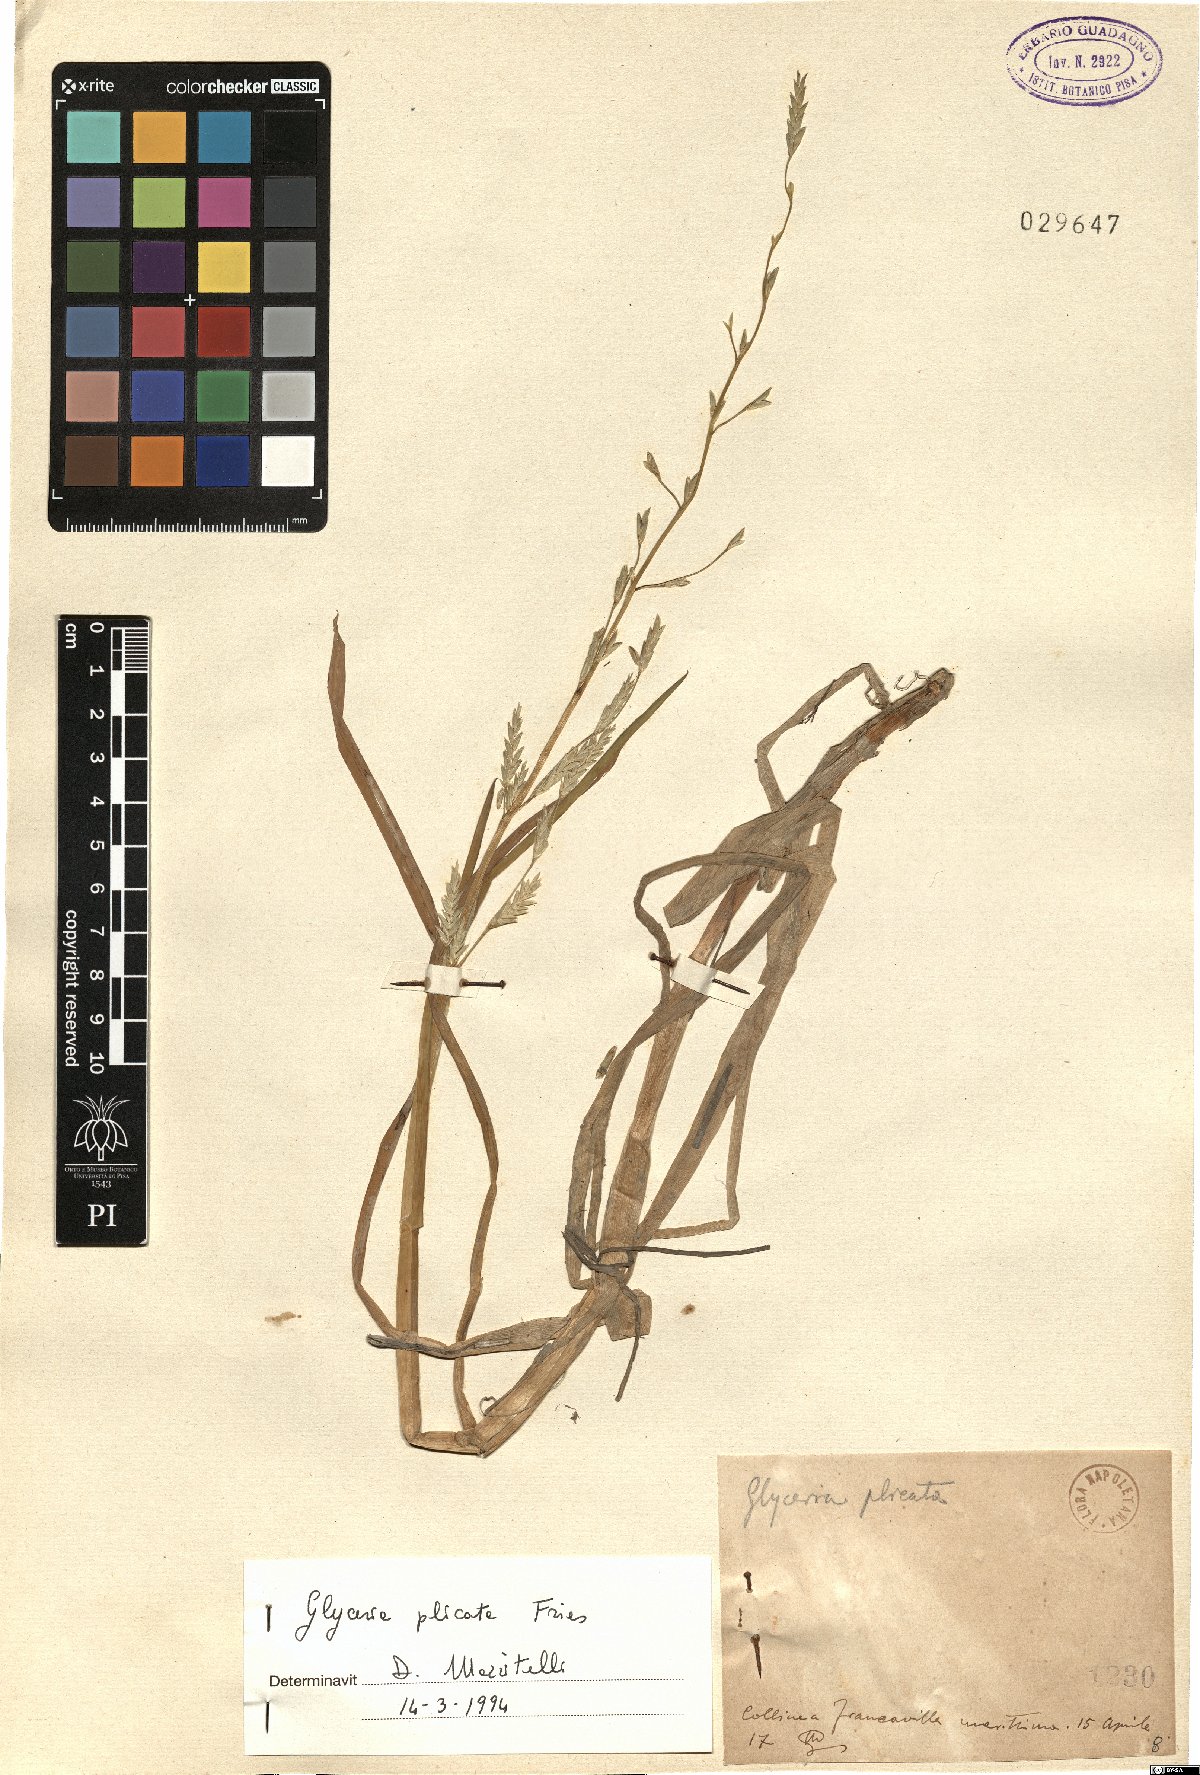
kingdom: Plantae
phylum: Tracheophyta
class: Liliopsida
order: Poales
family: Poaceae
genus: Glyceria
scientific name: Glyceria notata
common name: Plicate sweet-grass
